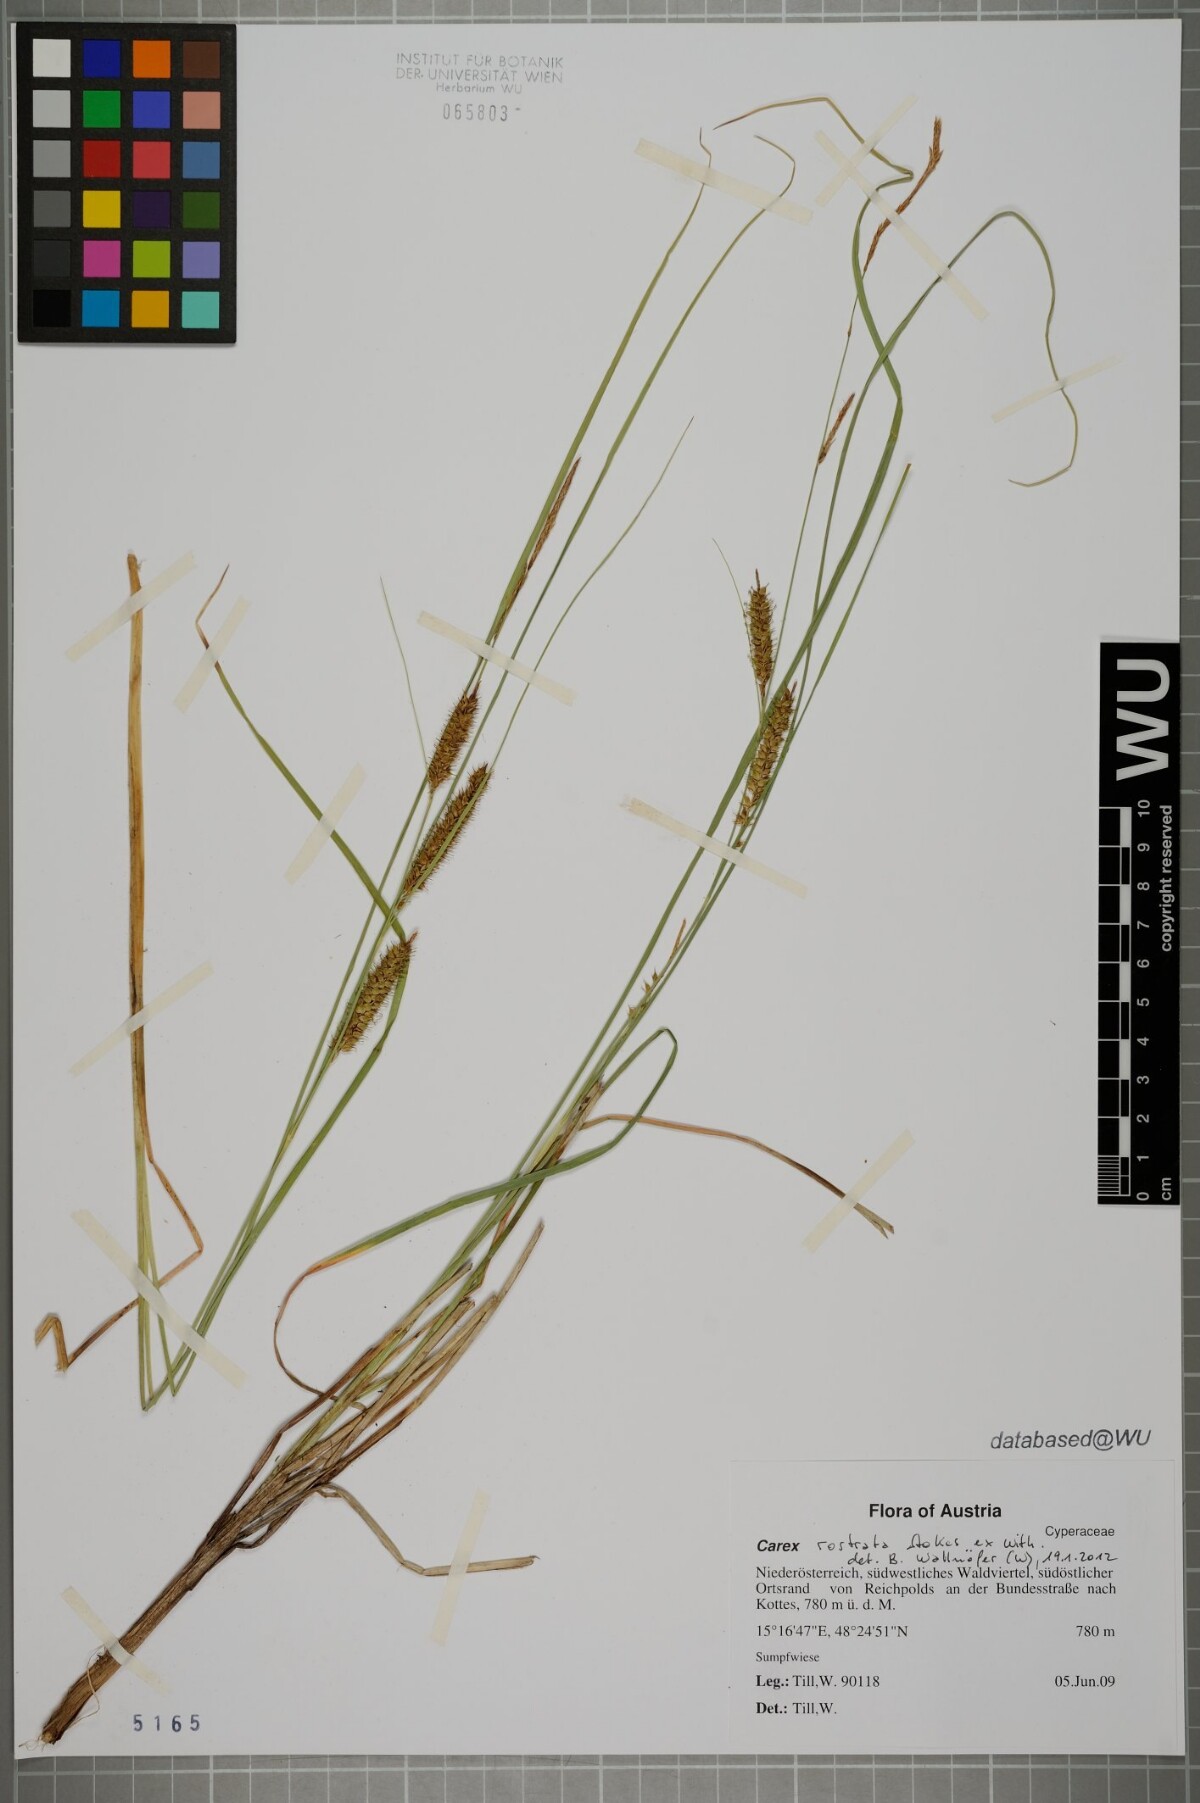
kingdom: Plantae
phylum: Tracheophyta
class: Liliopsida
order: Poales
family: Cyperaceae
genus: Carex
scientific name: Carex rostrata
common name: Bottle sedge
